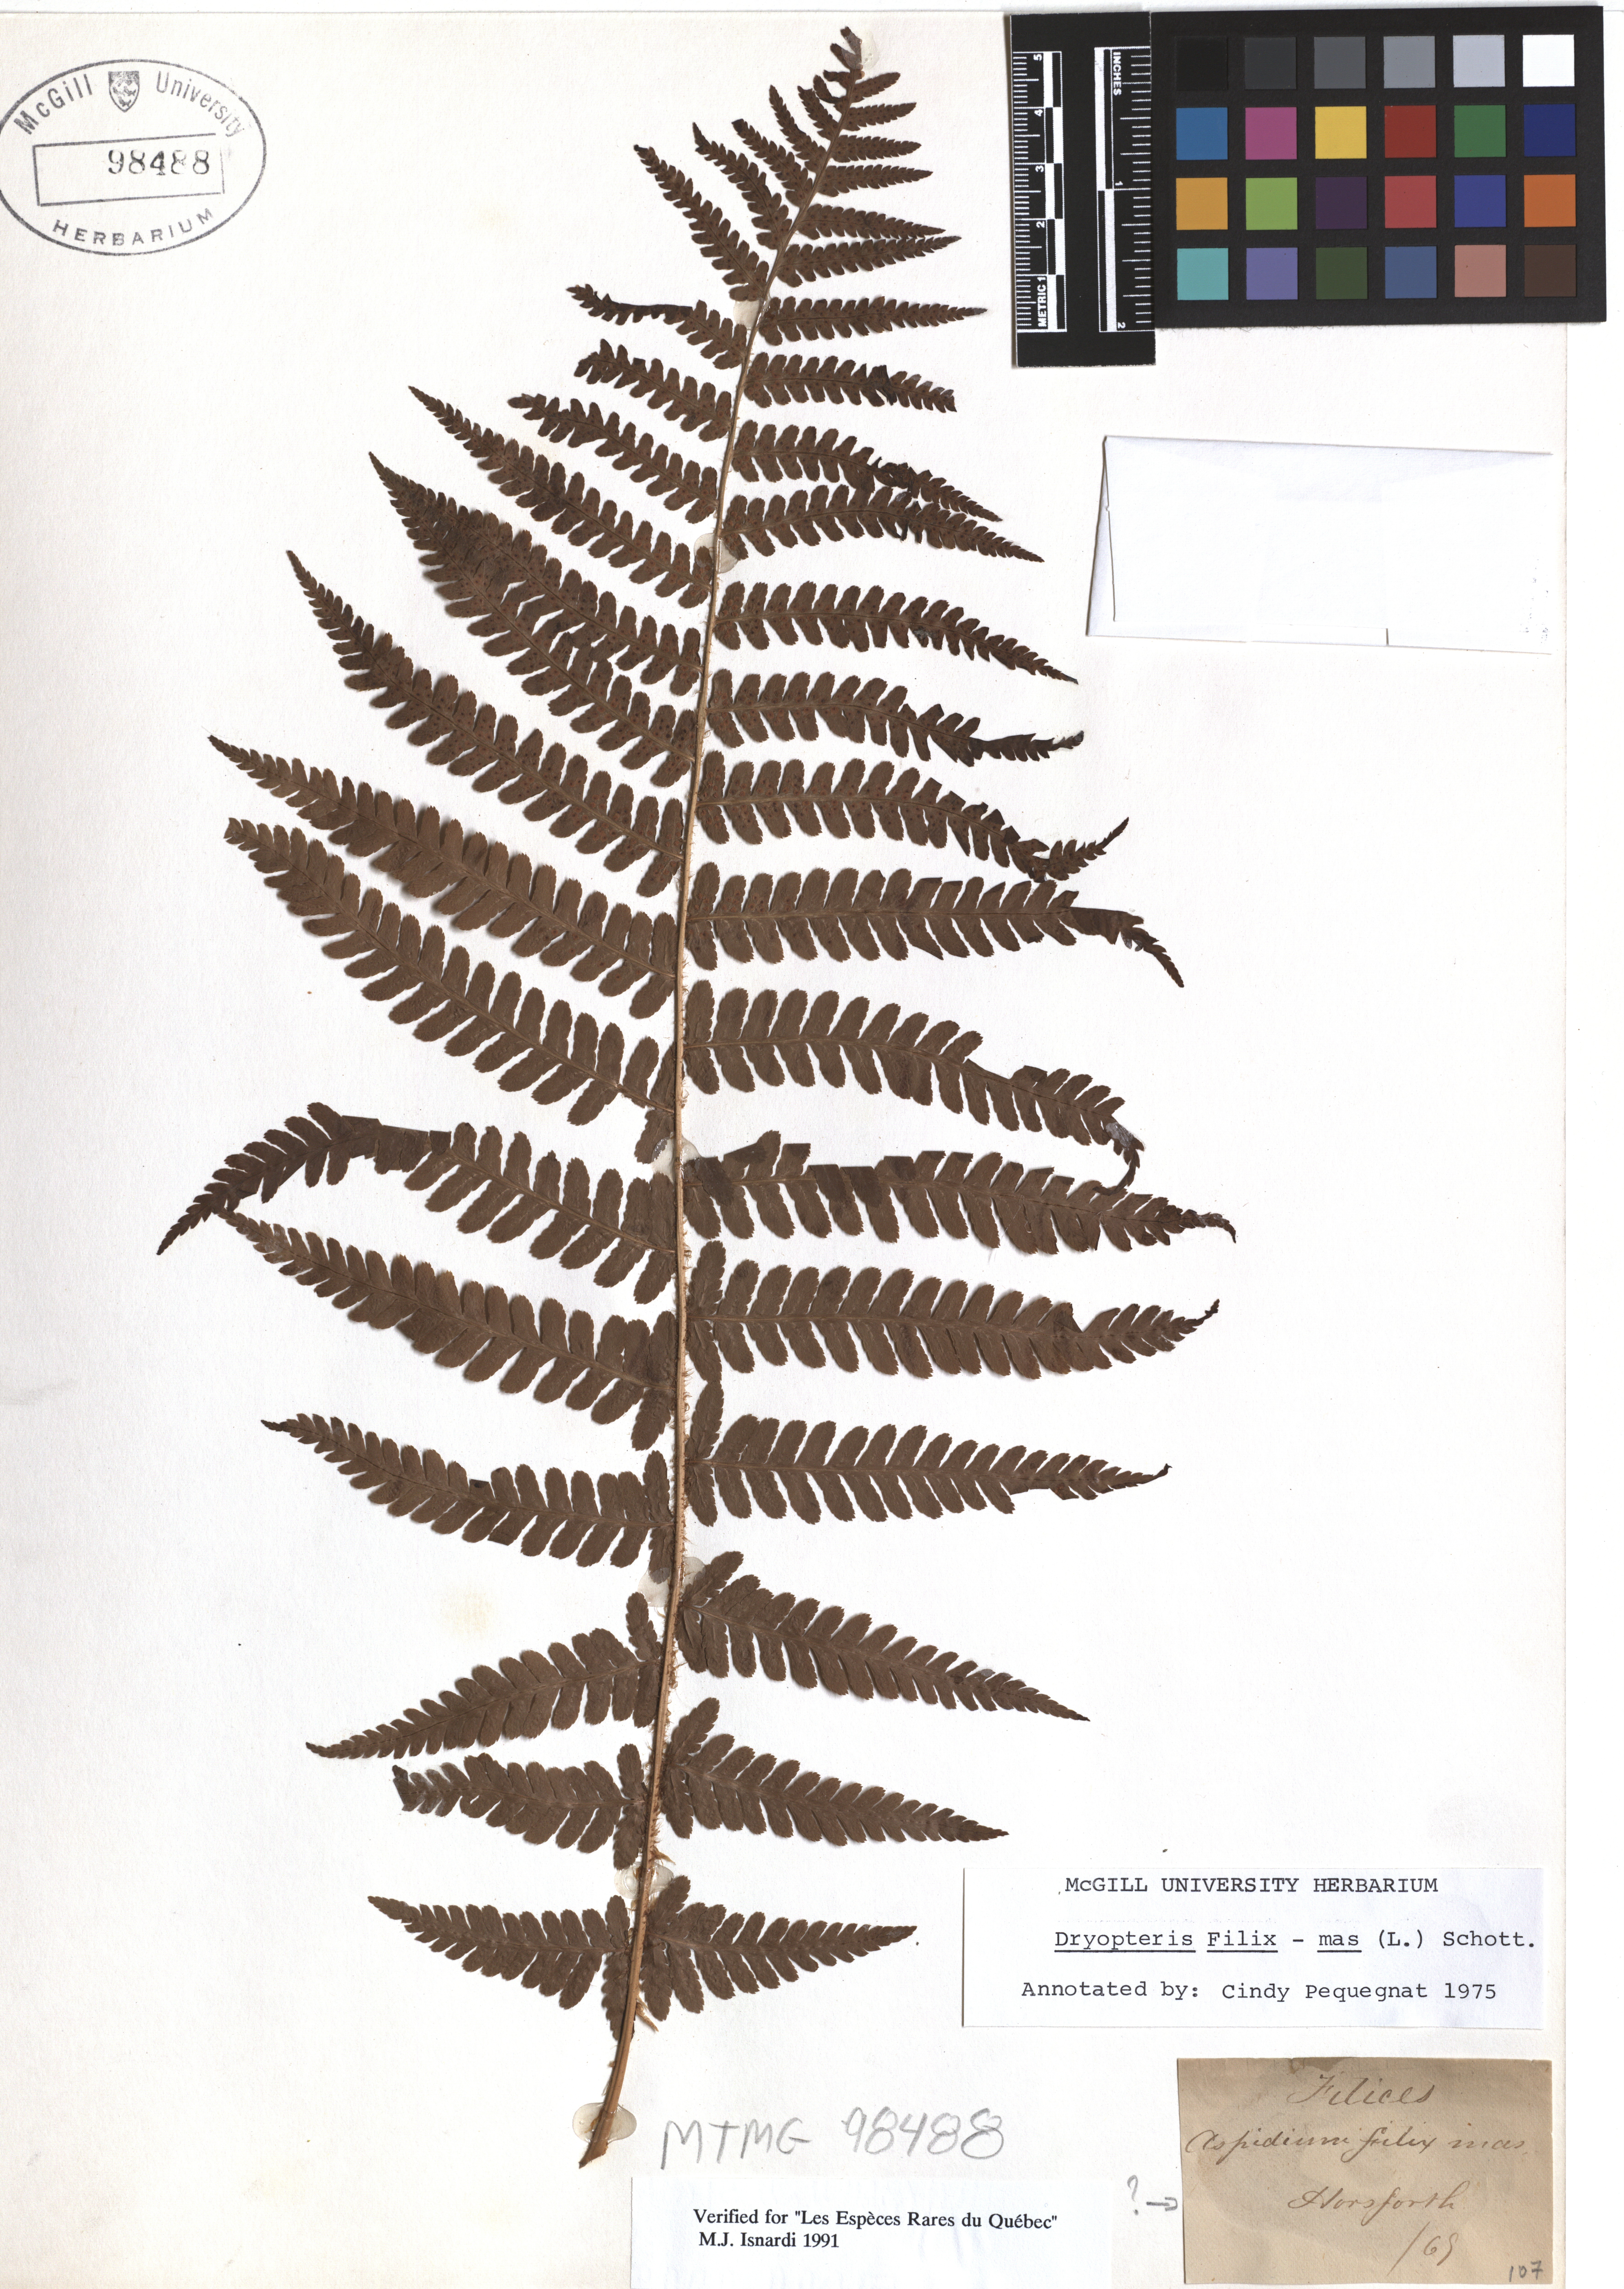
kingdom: Plantae
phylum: Tracheophyta
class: Polypodiopsida
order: Polypodiales
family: Dryopteridaceae
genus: Dryopteris
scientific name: Dryopteris filix-mas
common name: Male fern
